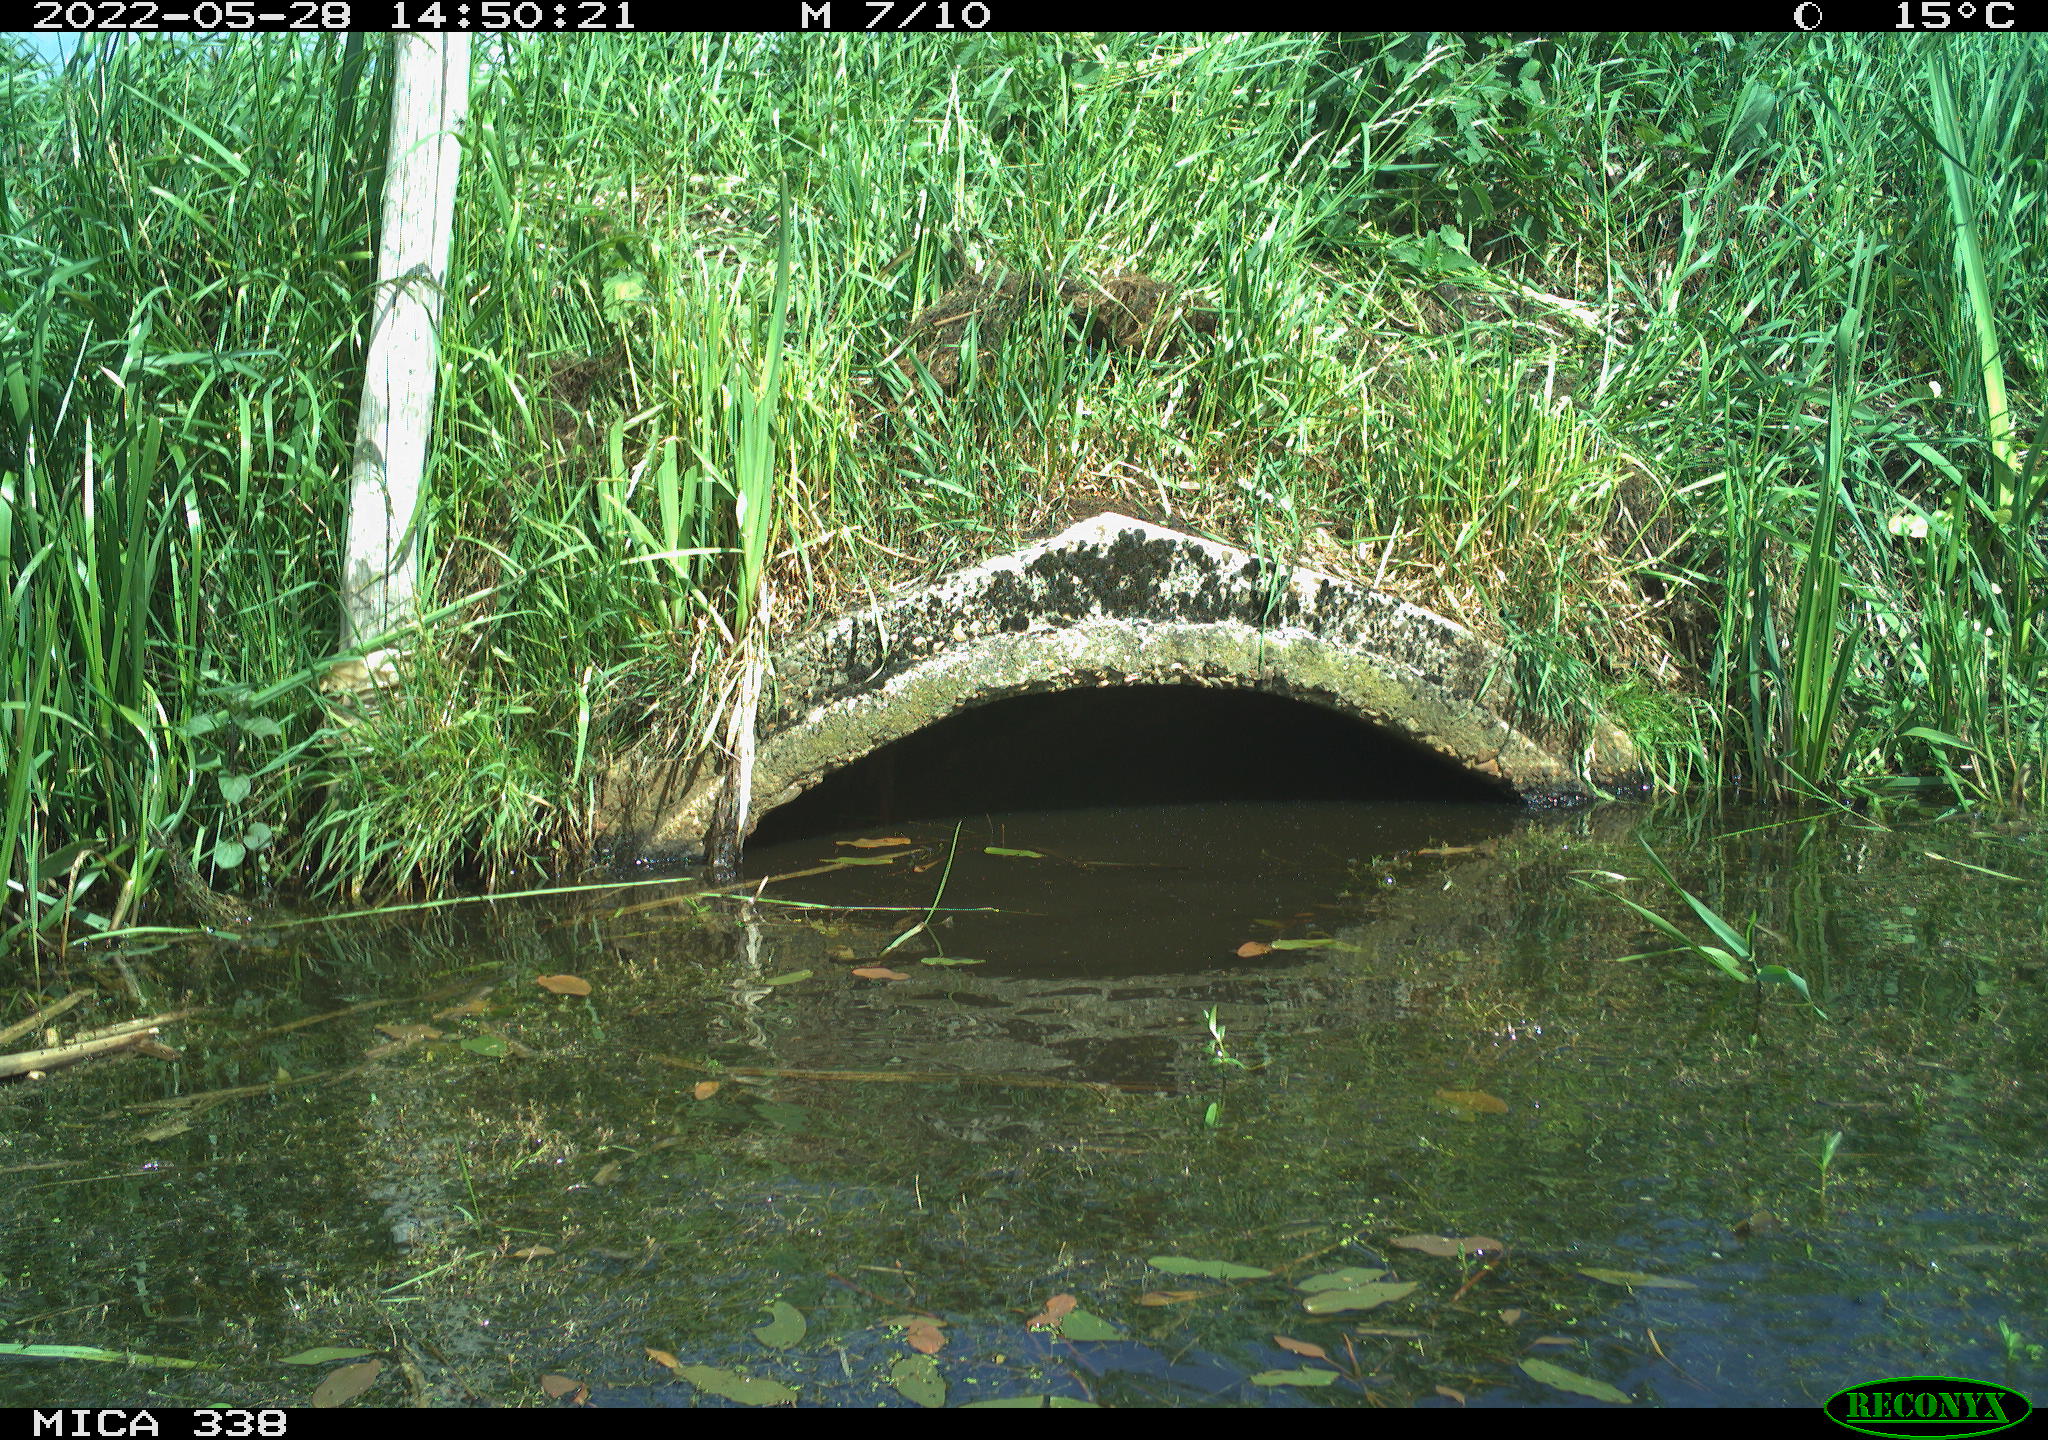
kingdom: Animalia
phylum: Chordata
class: Aves
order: Anseriformes
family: Anatidae
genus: Anas
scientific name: Anas platyrhynchos
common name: Mallard
